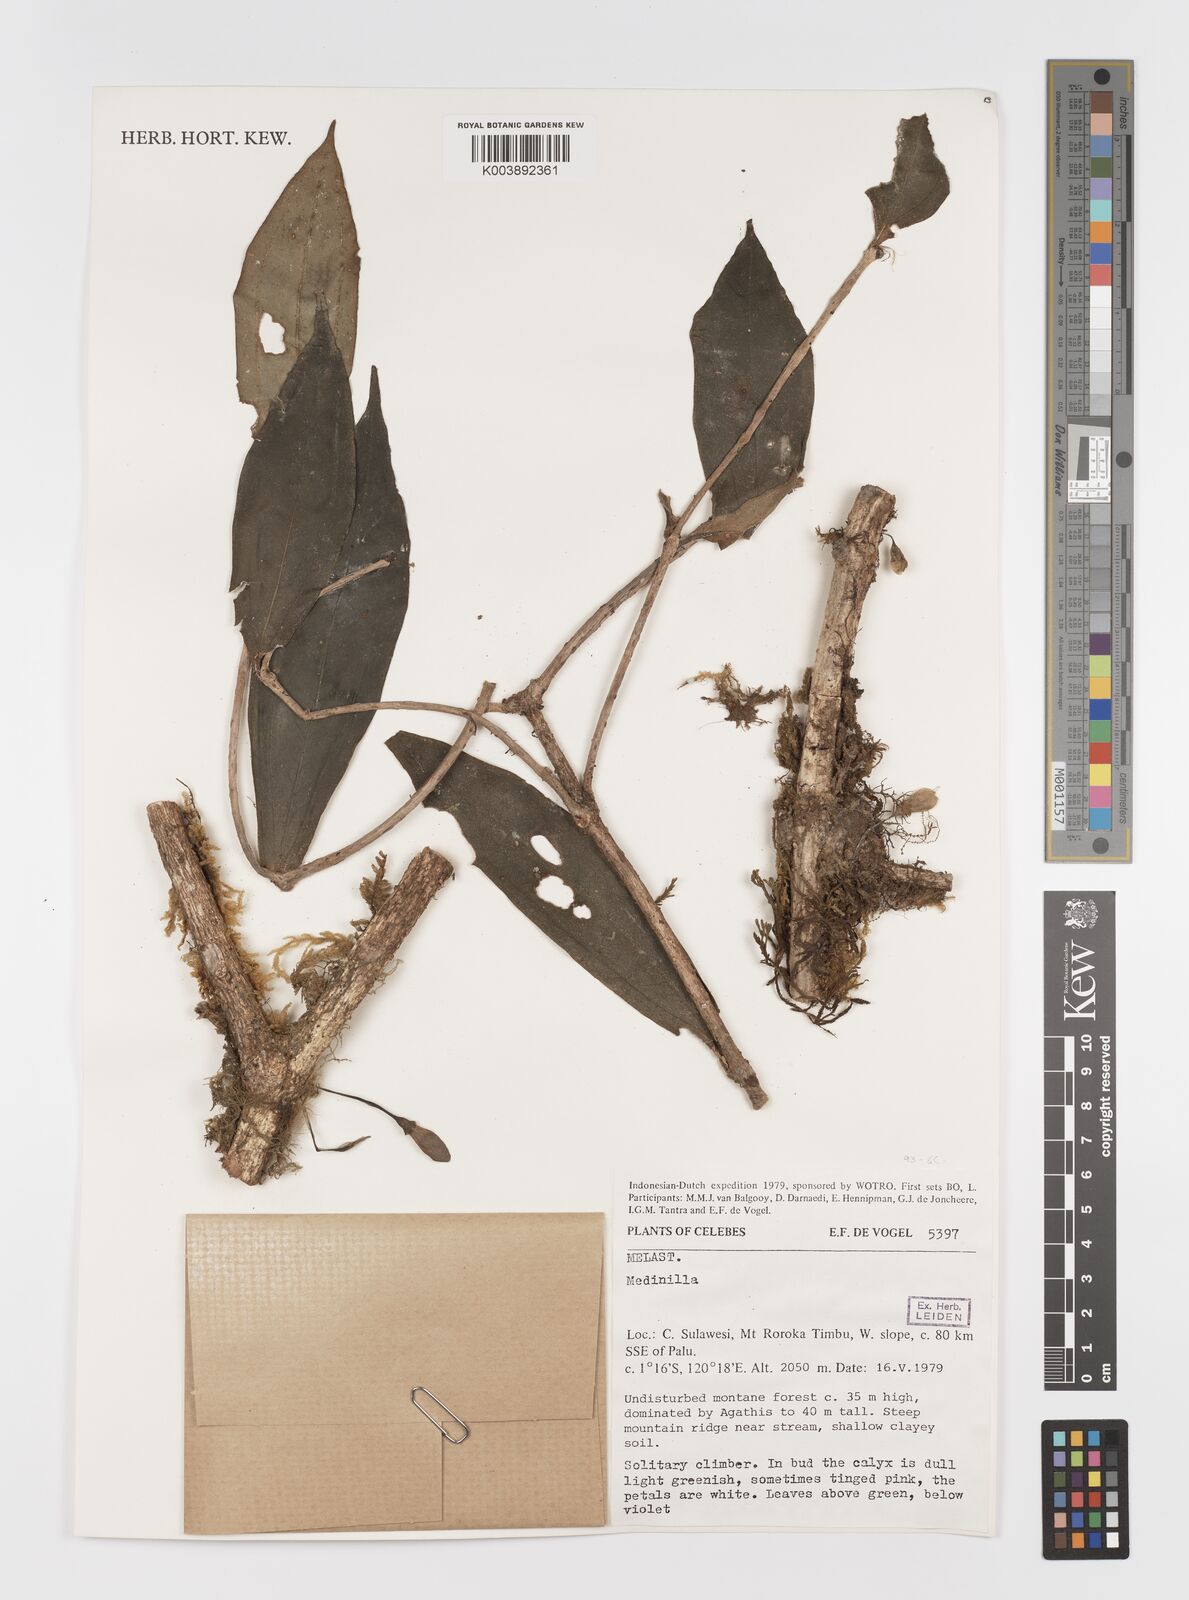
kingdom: Plantae
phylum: Tracheophyta
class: Magnoliopsida
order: Myrtales
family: Melastomataceae
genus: Medinilla
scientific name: Medinilla
